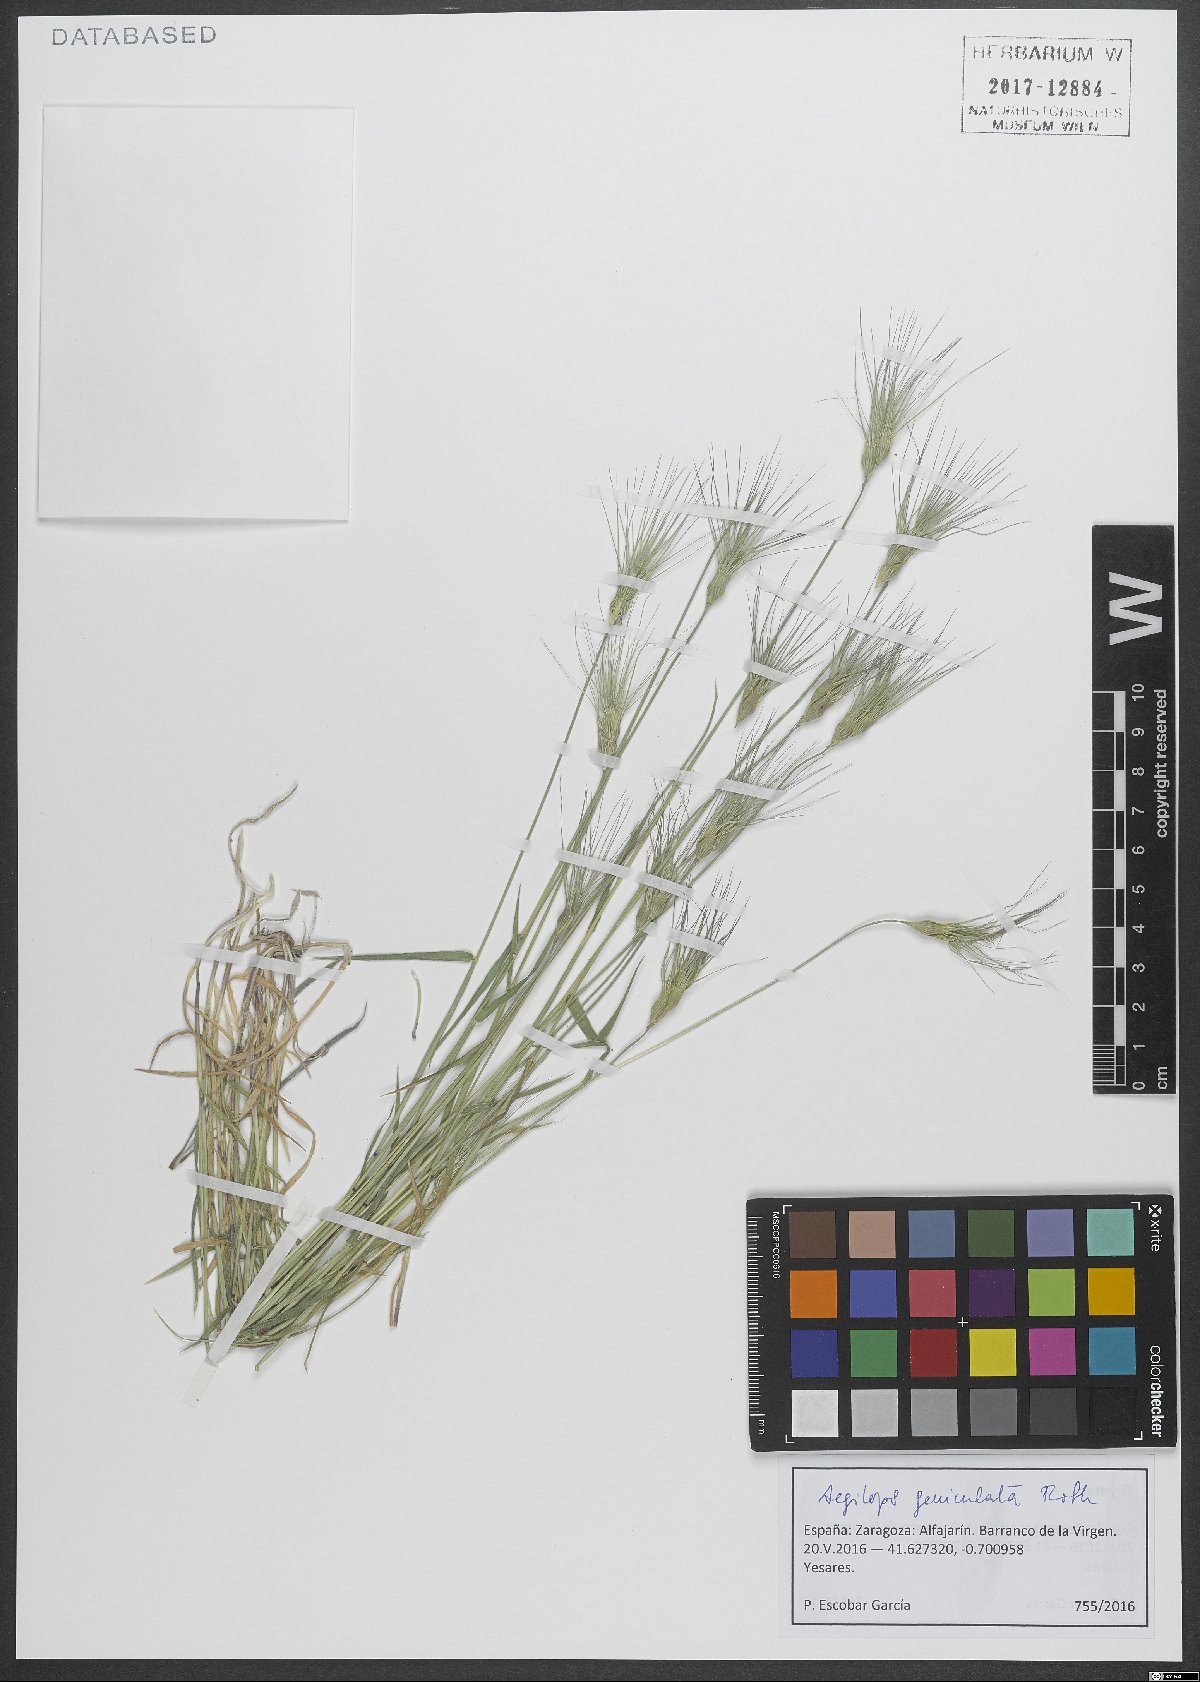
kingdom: Plantae
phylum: Tracheophyta
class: Liliopsida
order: Poales
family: Poaceae
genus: Aegilops
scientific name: Aegilops geniculata
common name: Ovate goat grass
